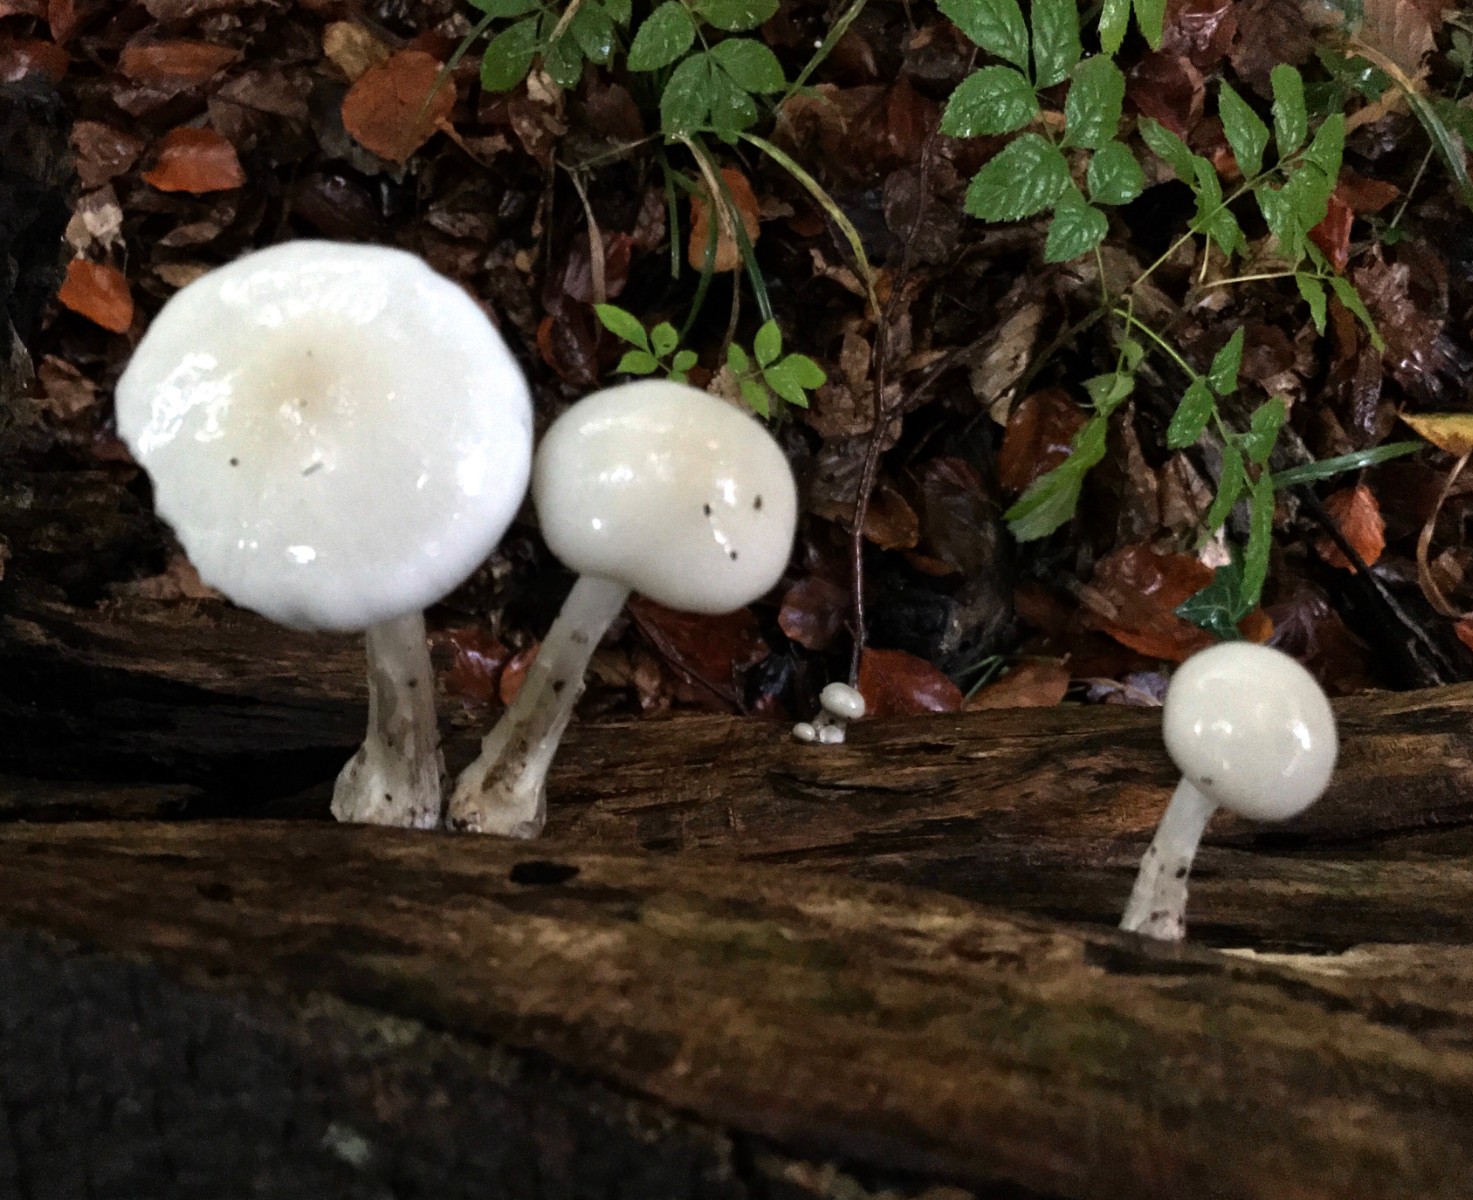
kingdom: Fungi
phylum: Basidiomycota
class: Agaricomycetes
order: Agaricales
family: Physalacriaceae
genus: Mucidula
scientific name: Mucidula mucida
